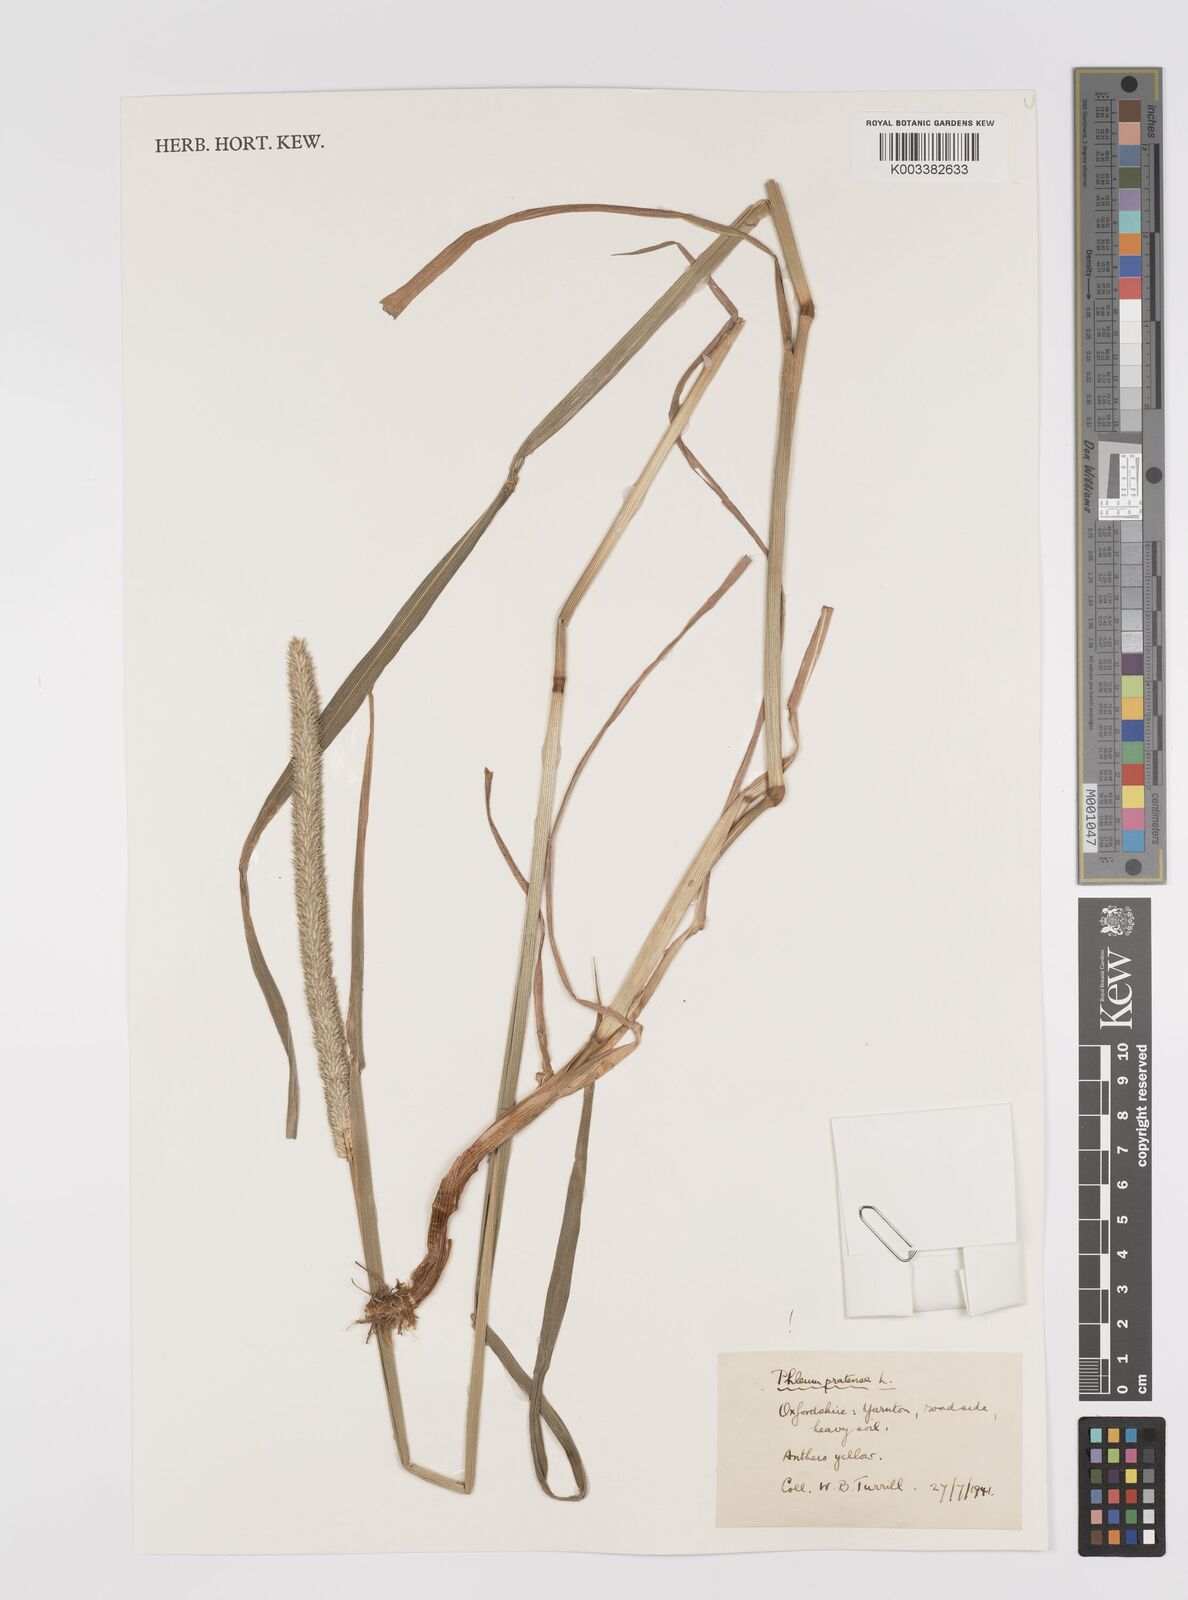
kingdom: Plantae
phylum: Tracheophyta
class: Liliopsida
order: Poales
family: Poaceae
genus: Phleum
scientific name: Phleum pratense
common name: Timothy grass
